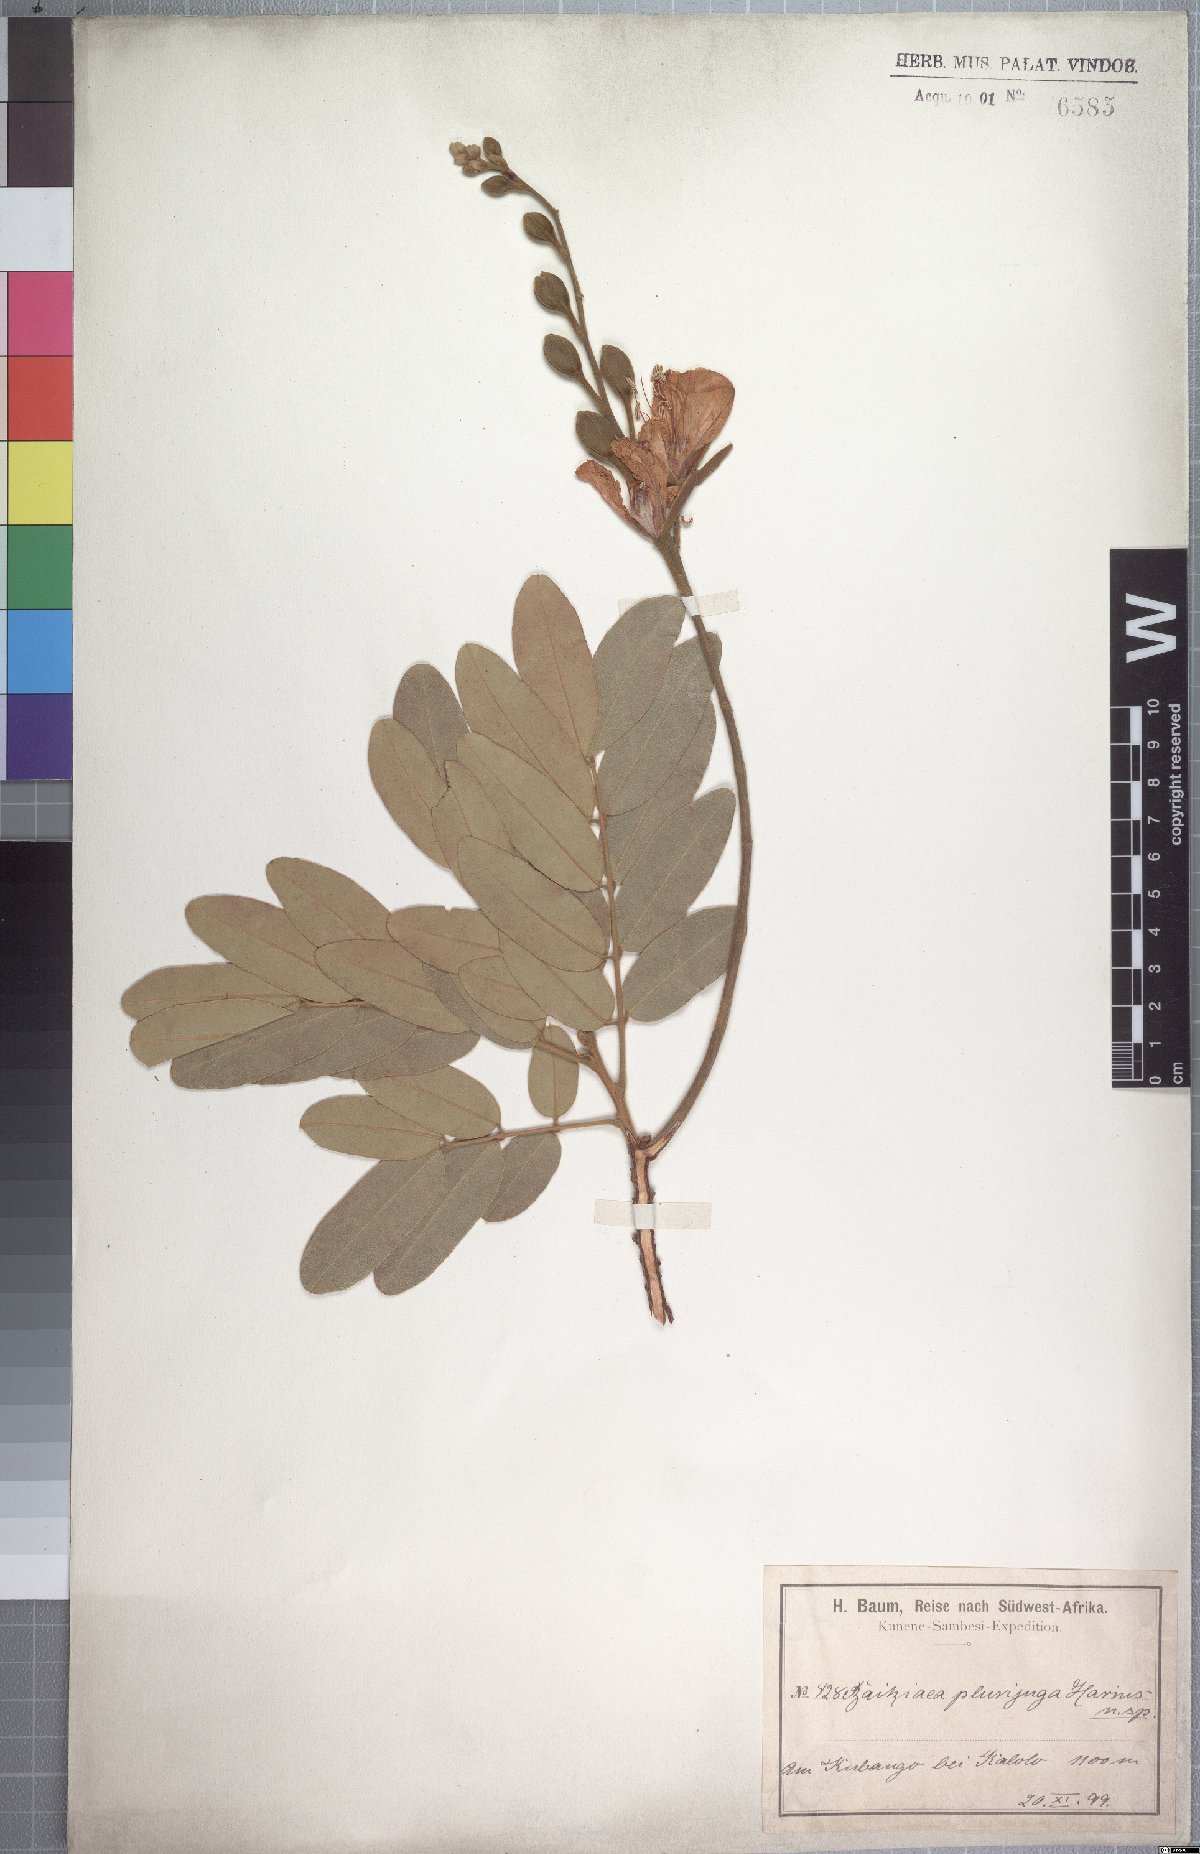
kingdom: Plantae
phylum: Tracheophyta
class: Magnoliopsida
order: Fabales
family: Fabaceae
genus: Baikiaea
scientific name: Baikiaea plurijuga
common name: Rhodesian-teak
